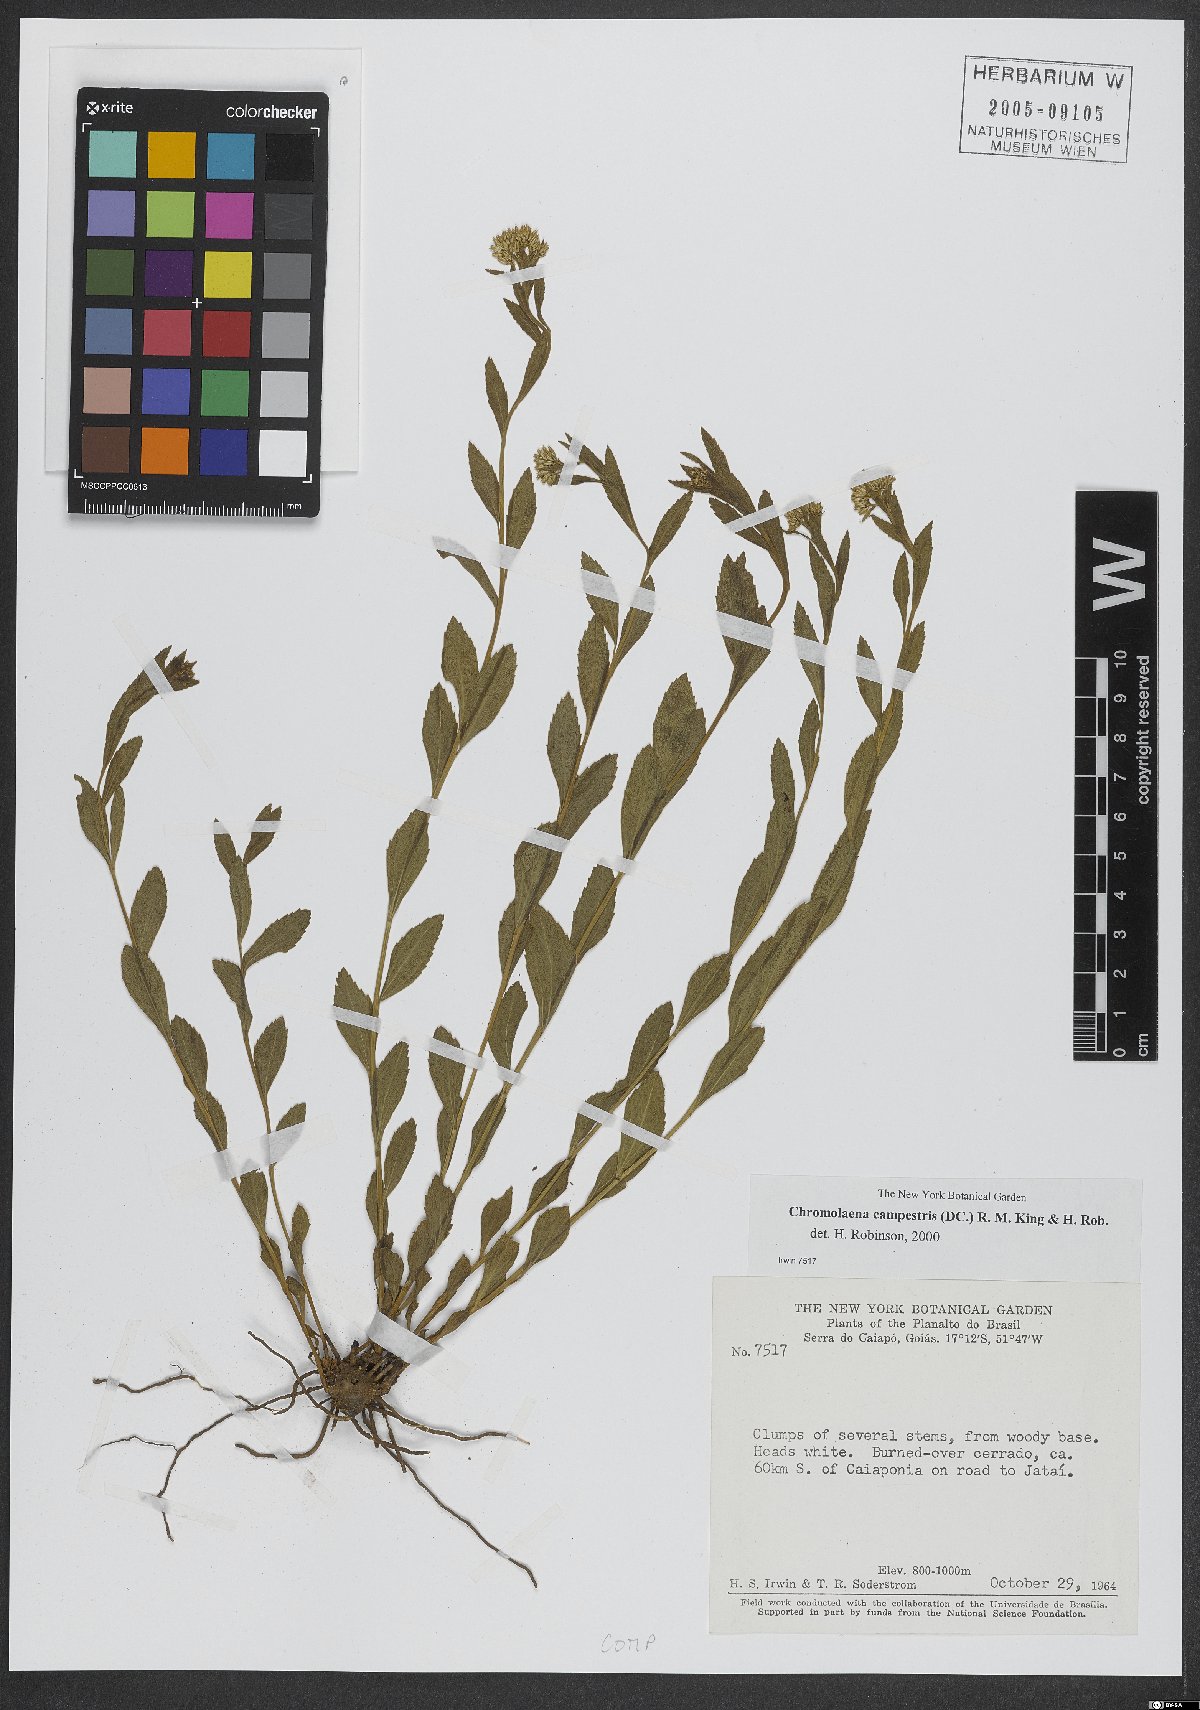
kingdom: Plantae
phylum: Tracheophyta
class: Magnoliopsida
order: Asterales
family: Asteraceae
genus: Chromolaena
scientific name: Chromolaena campestris
